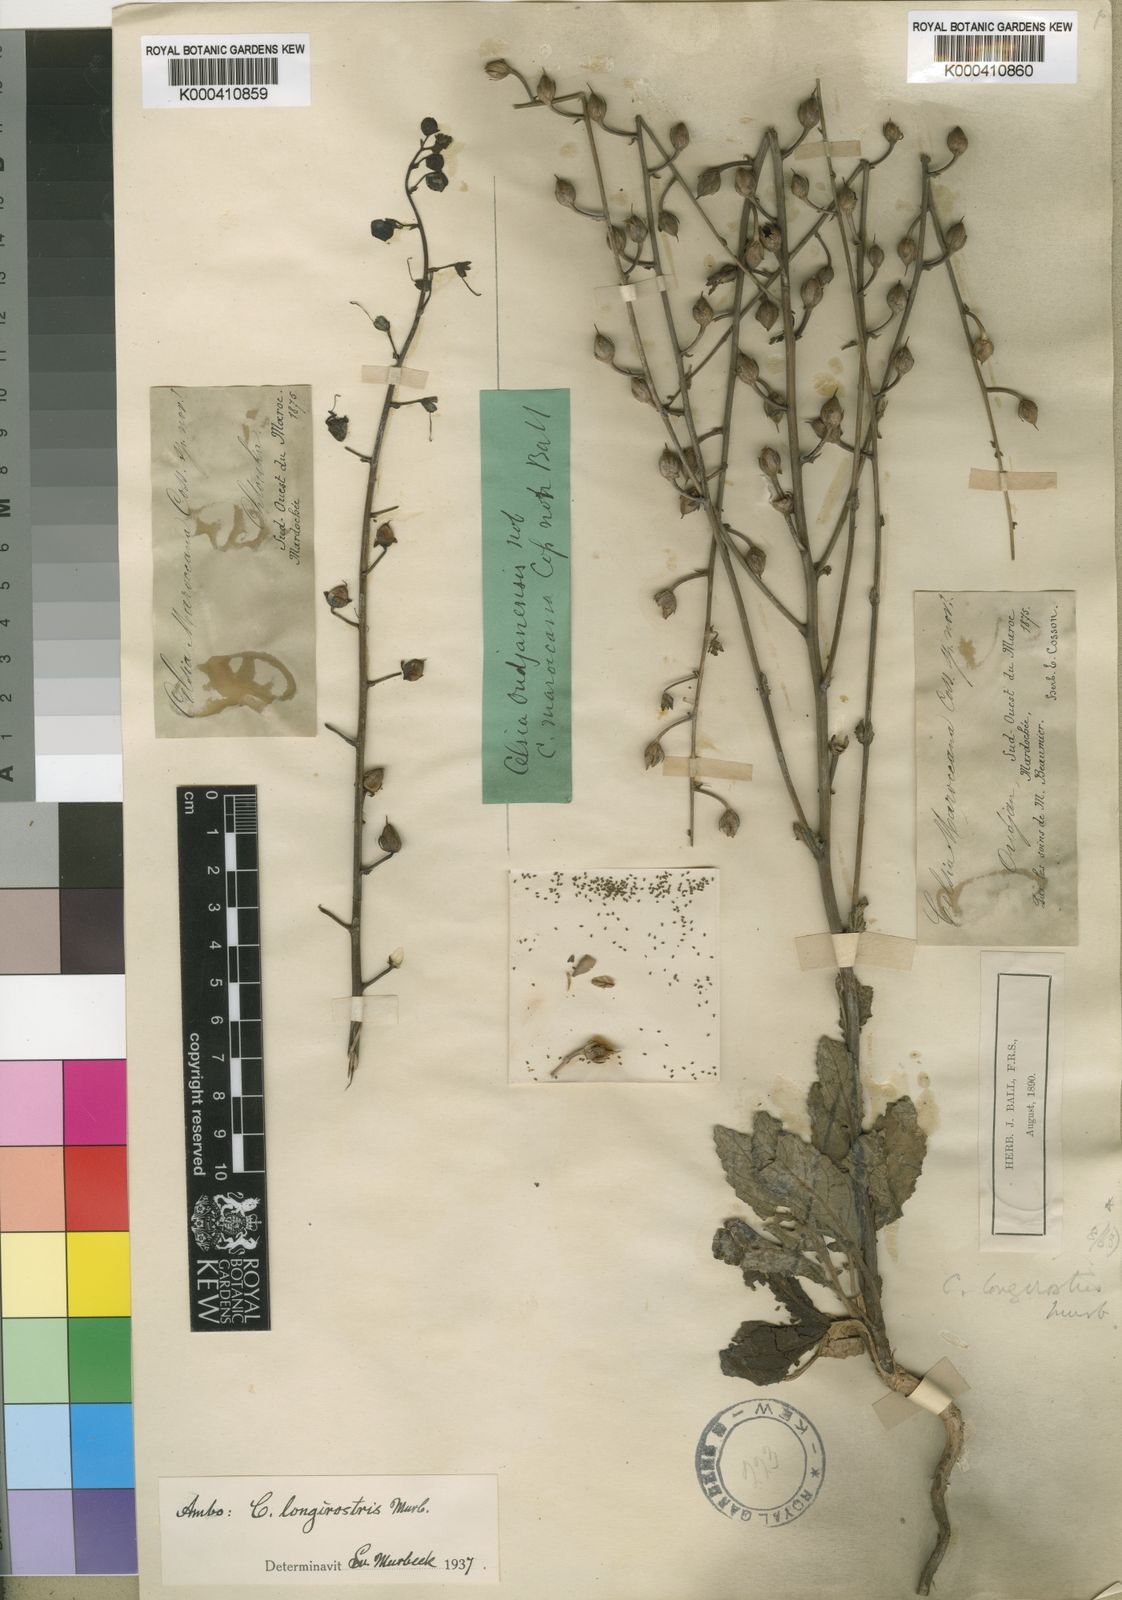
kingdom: Plantae
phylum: Tracheophyta
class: Magnoliopsida
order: Lamiales
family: Scrophulariaceae
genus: Verbascum
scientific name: Verbascum longirostre
